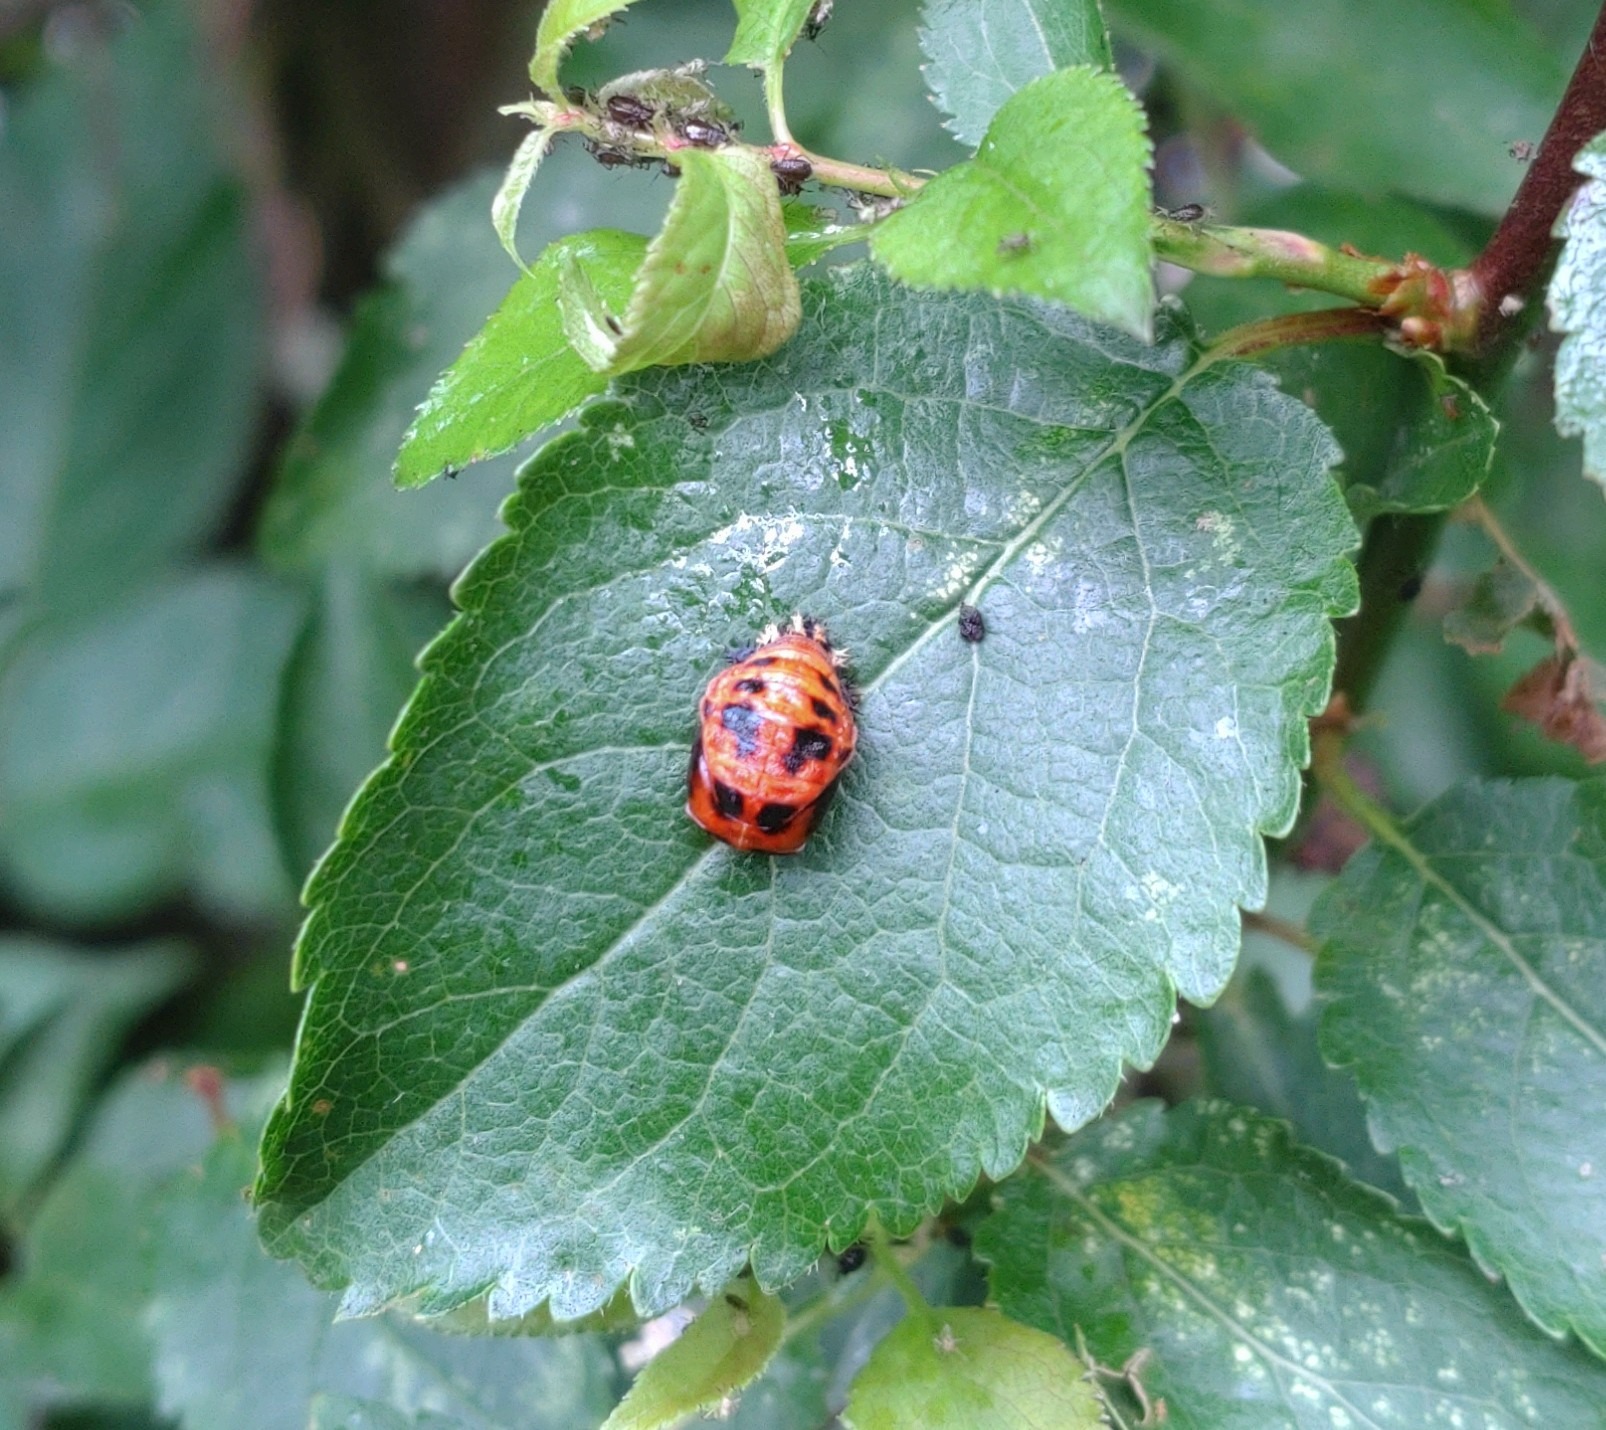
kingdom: Animalia
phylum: Arthropoda
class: Insecta
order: Coleoptera
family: Coccinellidae
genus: Harmonia
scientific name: Harmonia axyridis
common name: Harlekinmariehøne
